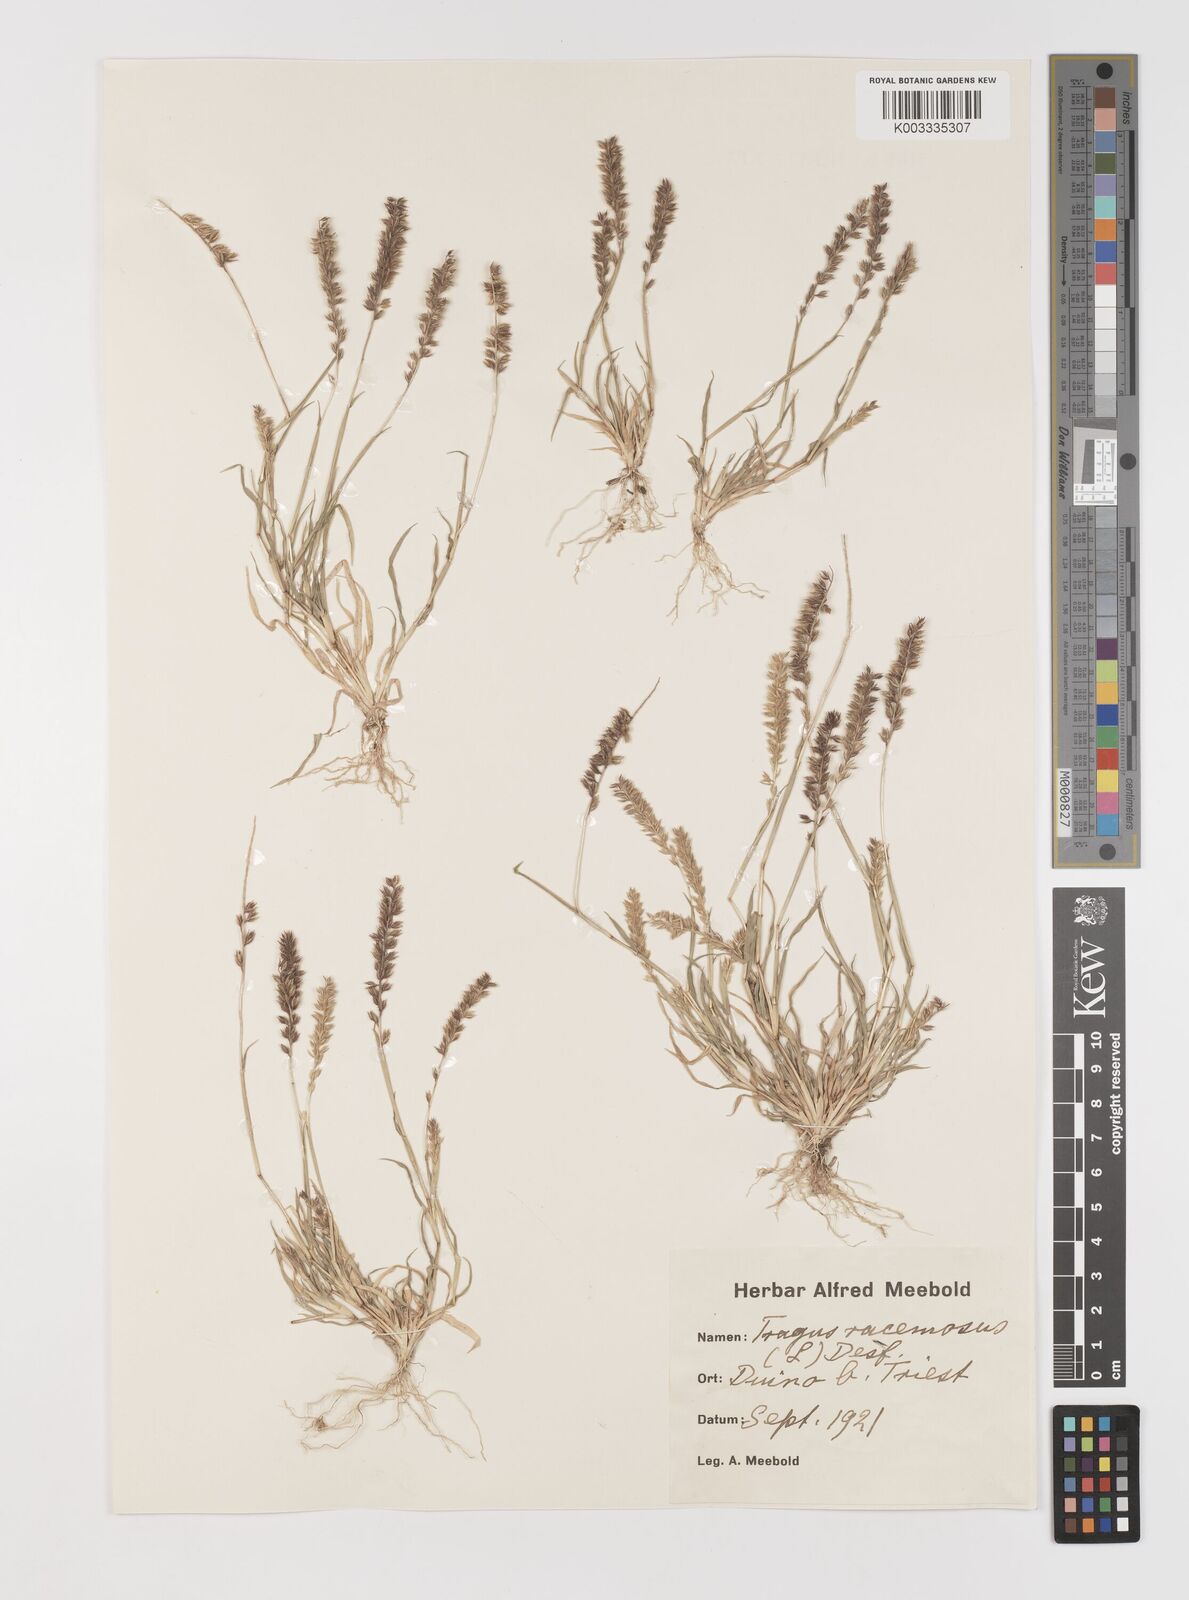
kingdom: Plantae
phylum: Tracheophyta
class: Liliopsida
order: Poales
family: Poaceae
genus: Tragus
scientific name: Tragus racemosus
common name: European bur-grass
